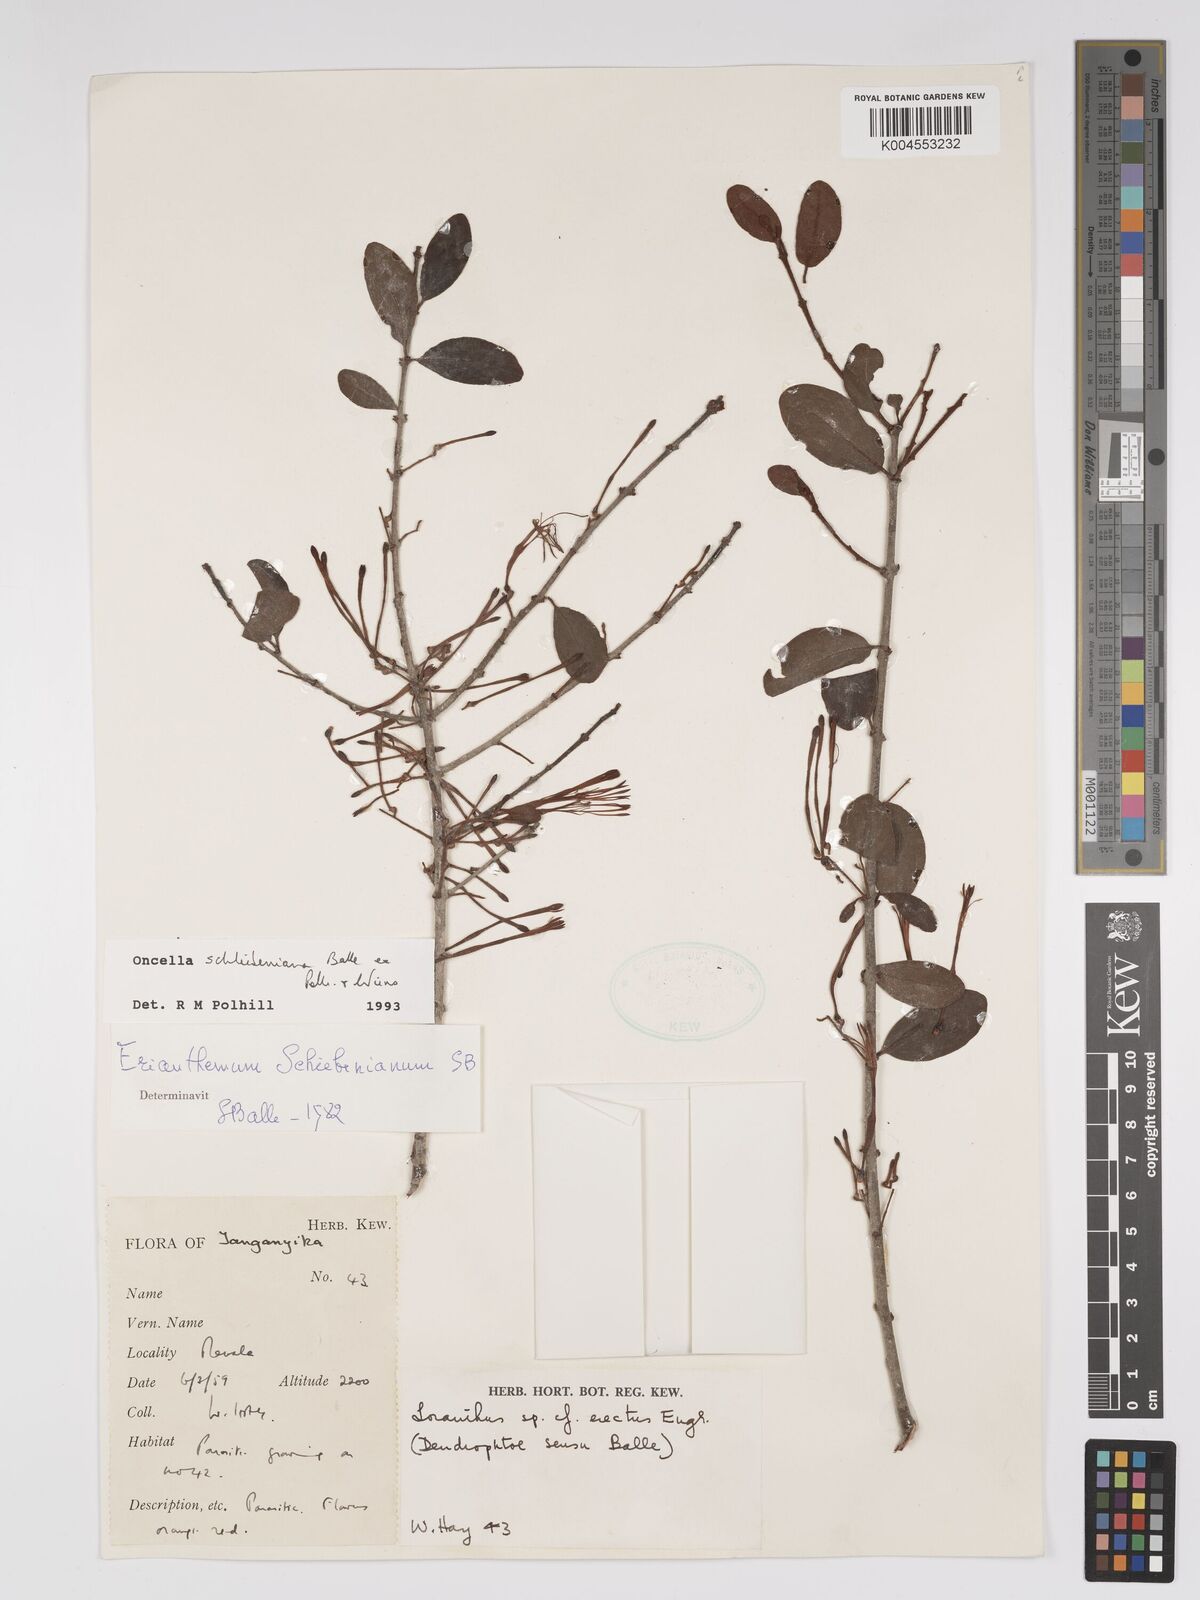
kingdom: Plantae
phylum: Tracheophyta
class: Magnoliopsida
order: Santalales
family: Loranthaceae
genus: Oncella
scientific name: Oncella schliebeniana
